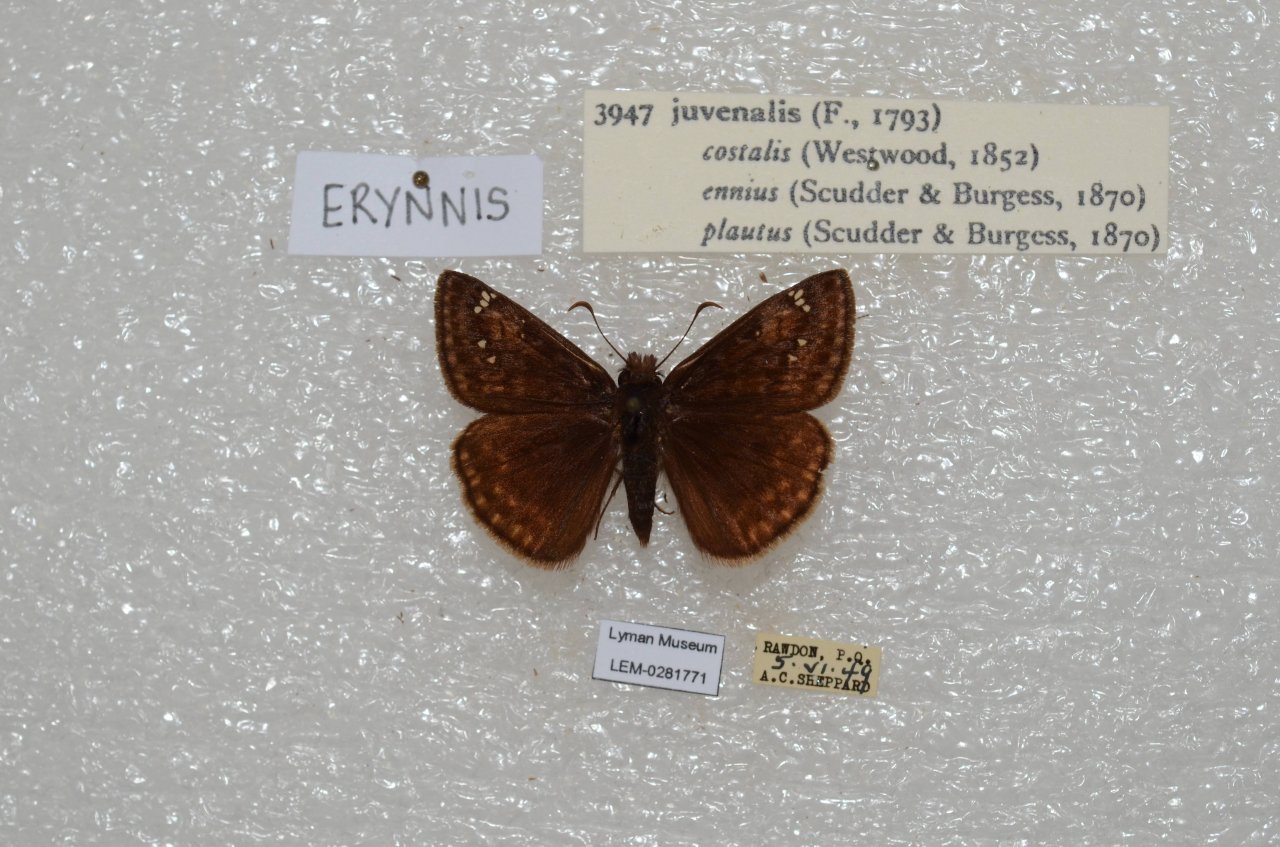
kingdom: Animalia
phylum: Arthropoda
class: Insecta
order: Lepidoptera
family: Hesperiidae
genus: Gesta
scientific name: Gesta
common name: Juvenal's Duskywing
